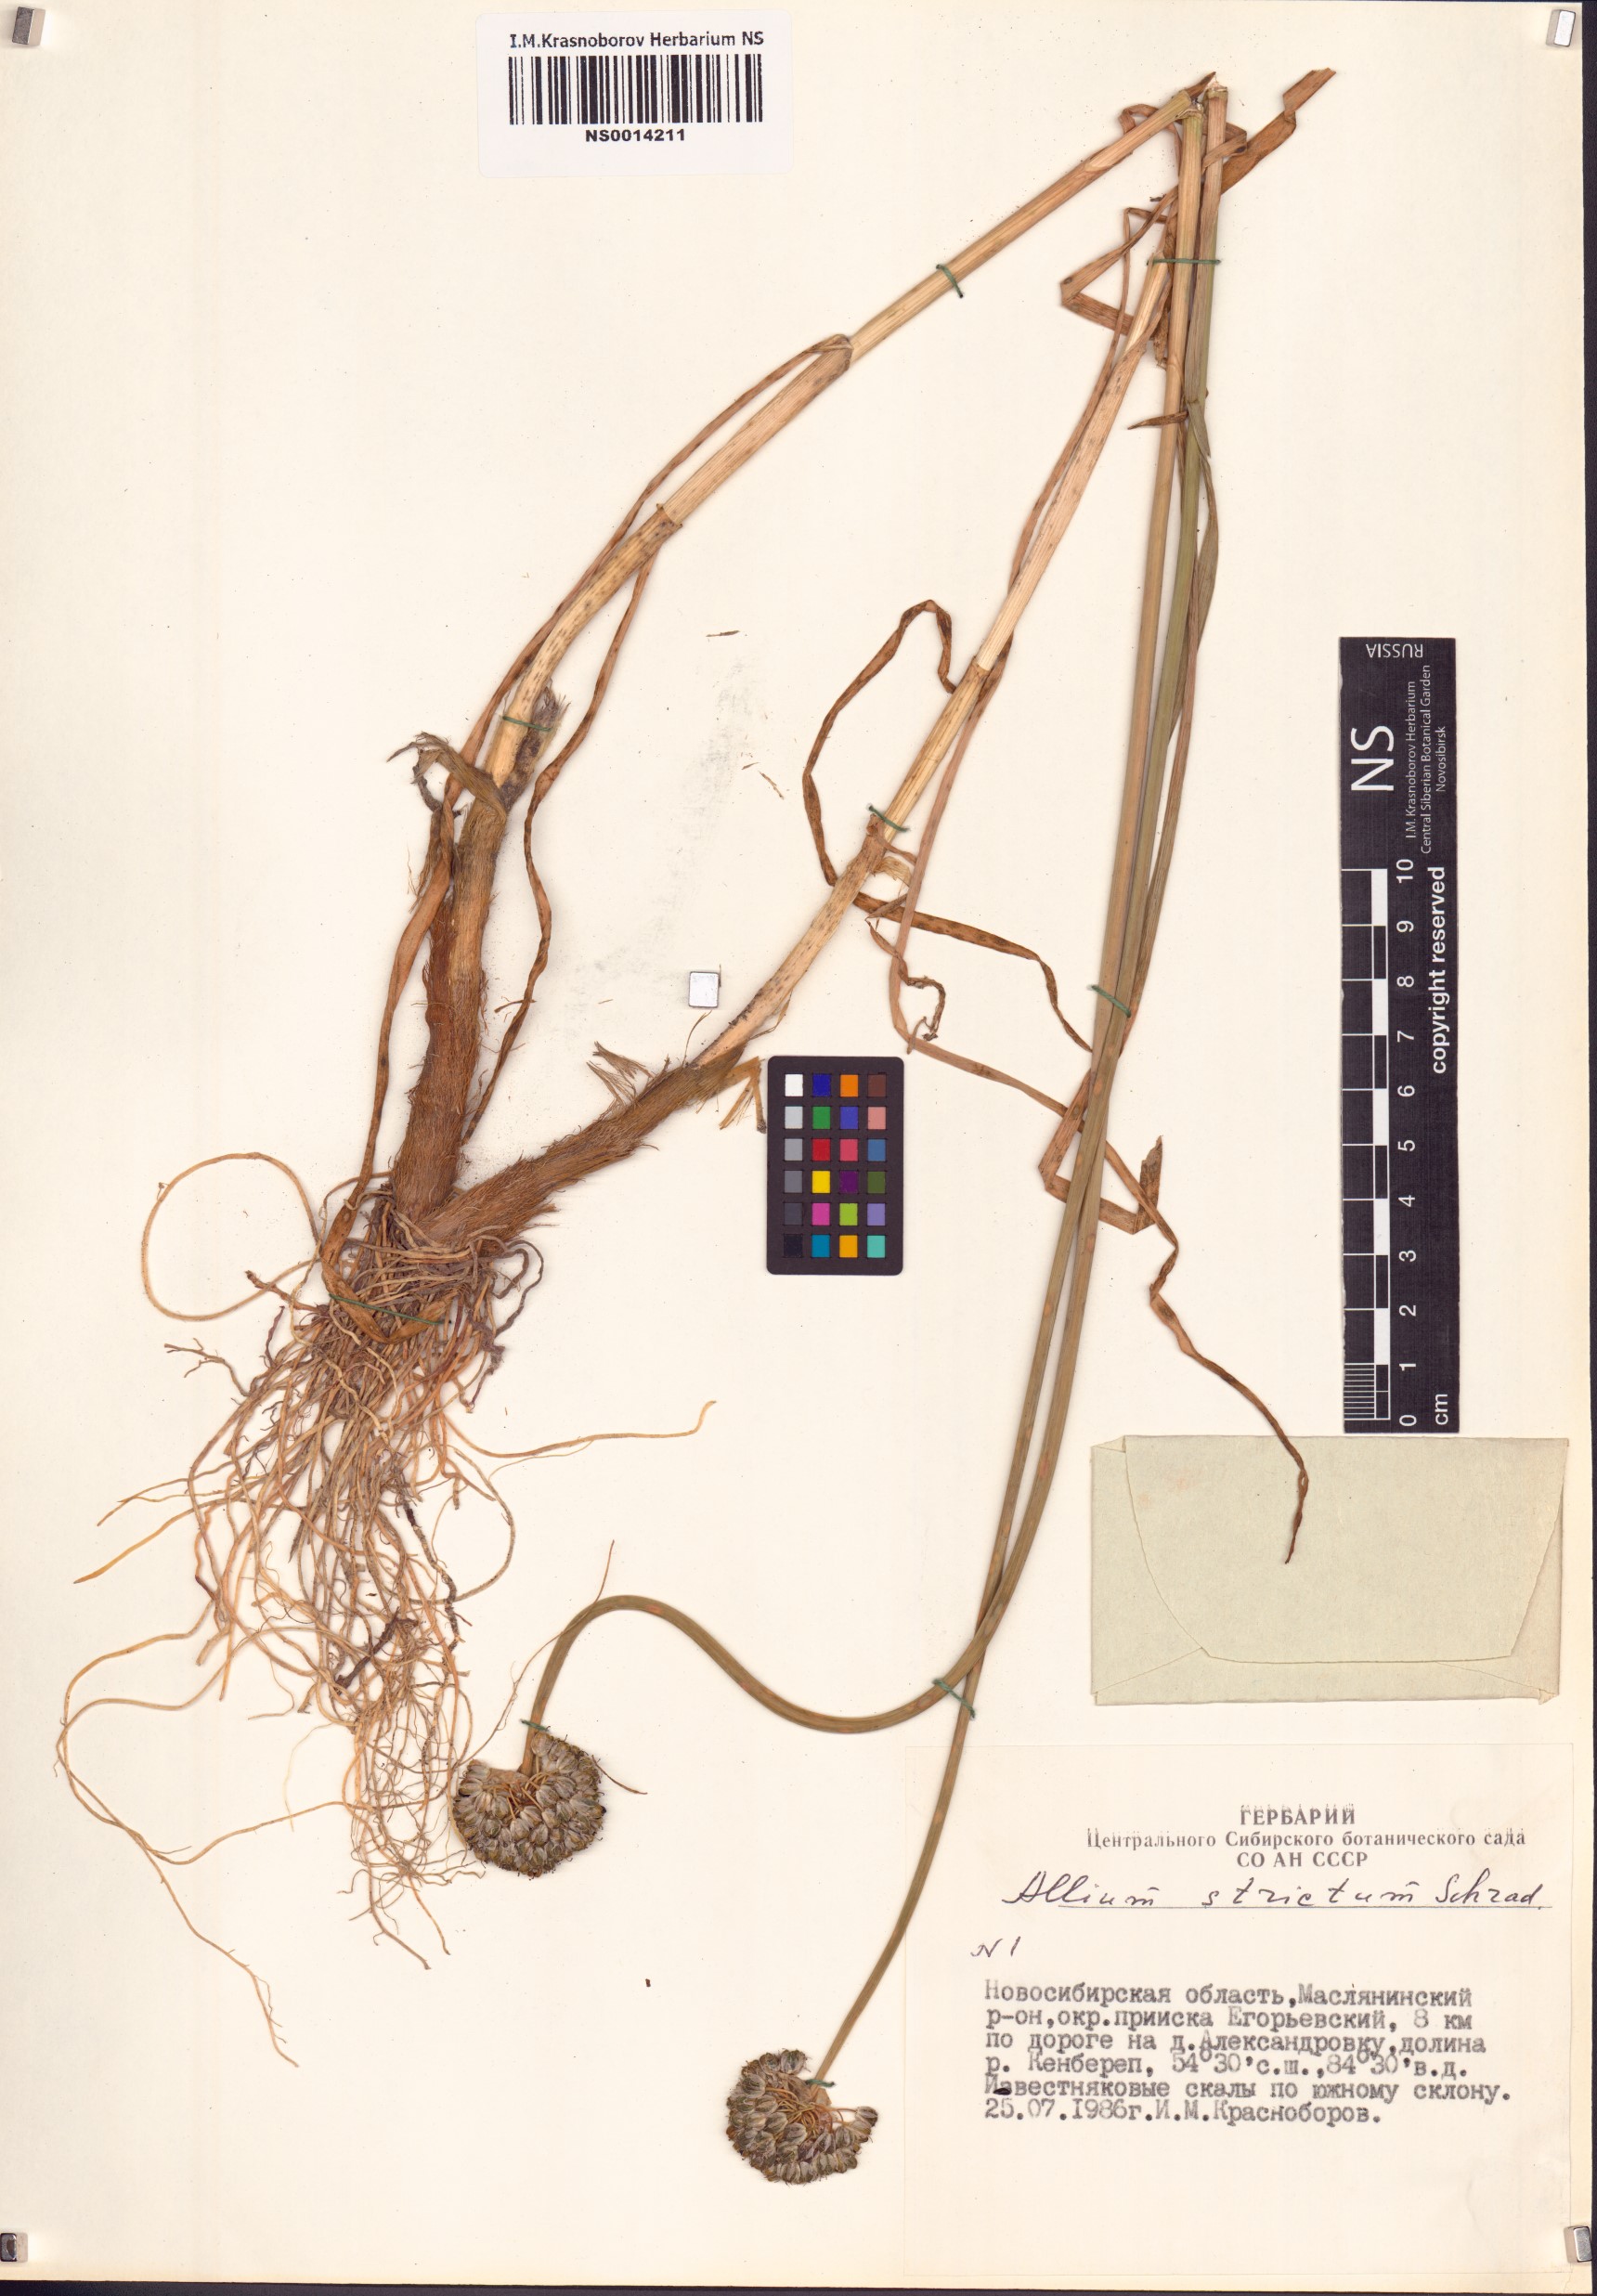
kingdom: Plantae
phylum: Tracheophyta
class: Liliopsida
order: Asparagales
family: Amaryllidaceae
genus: Allium
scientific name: Allium strictum
